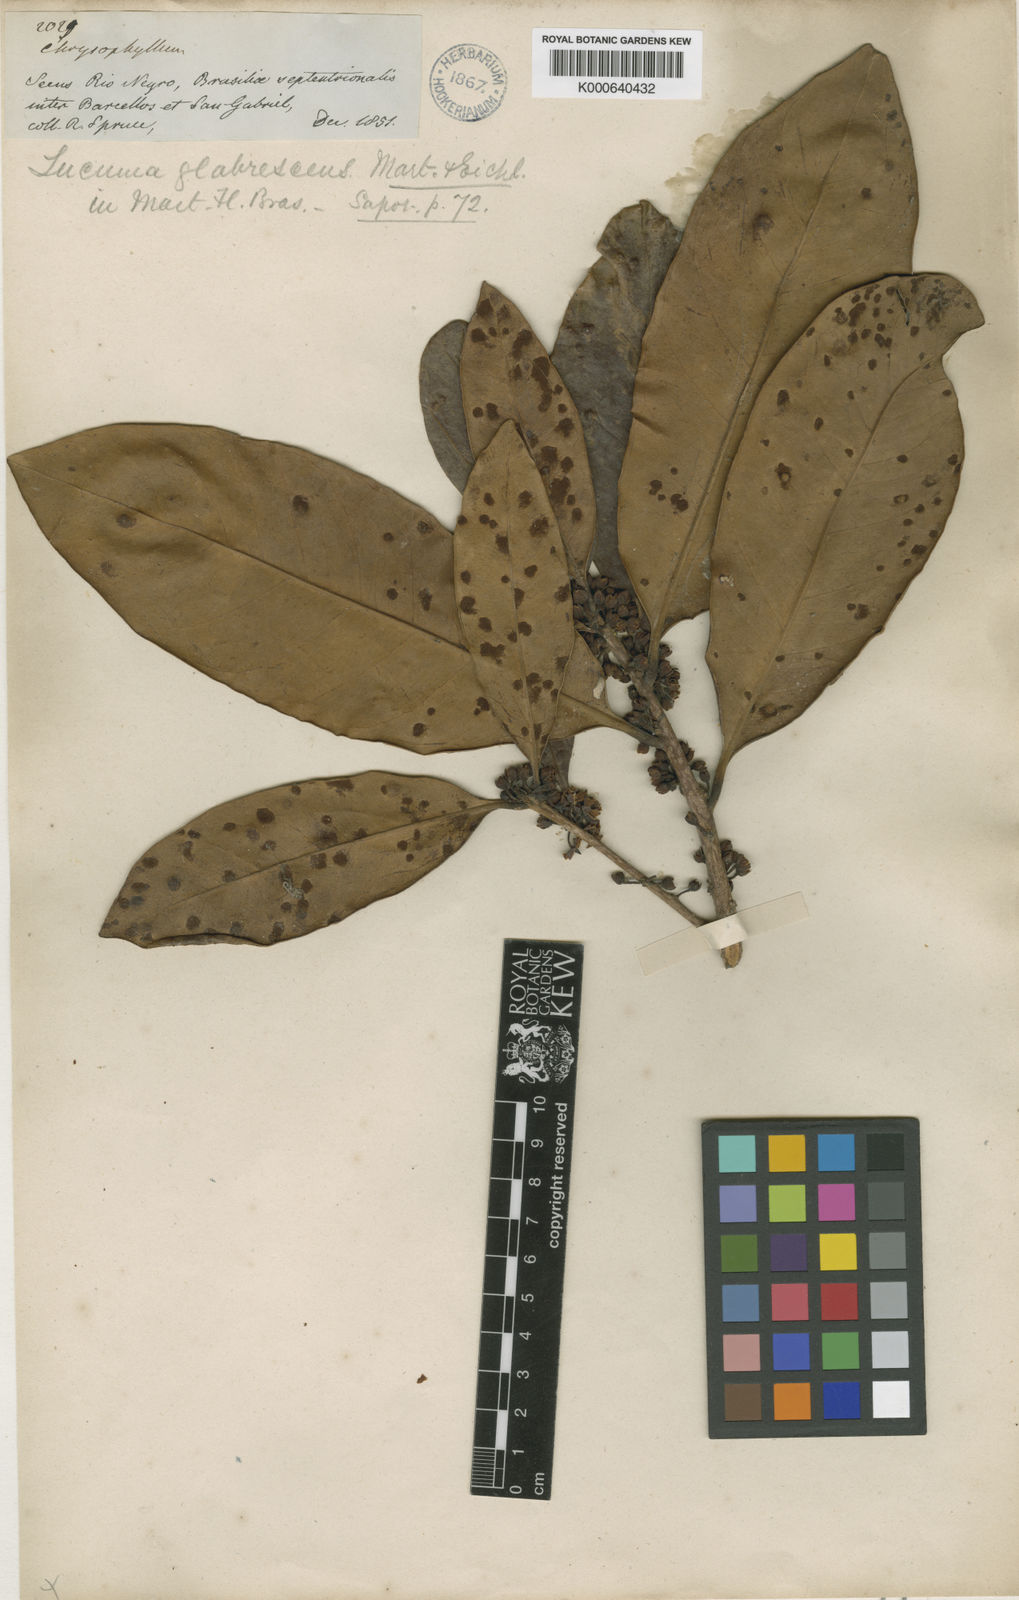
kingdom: Plantae
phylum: Tracheophyta
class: Magnoliopsida
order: Ericales
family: Sapotaceae
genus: Elaeoluma
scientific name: Elaeoluma
